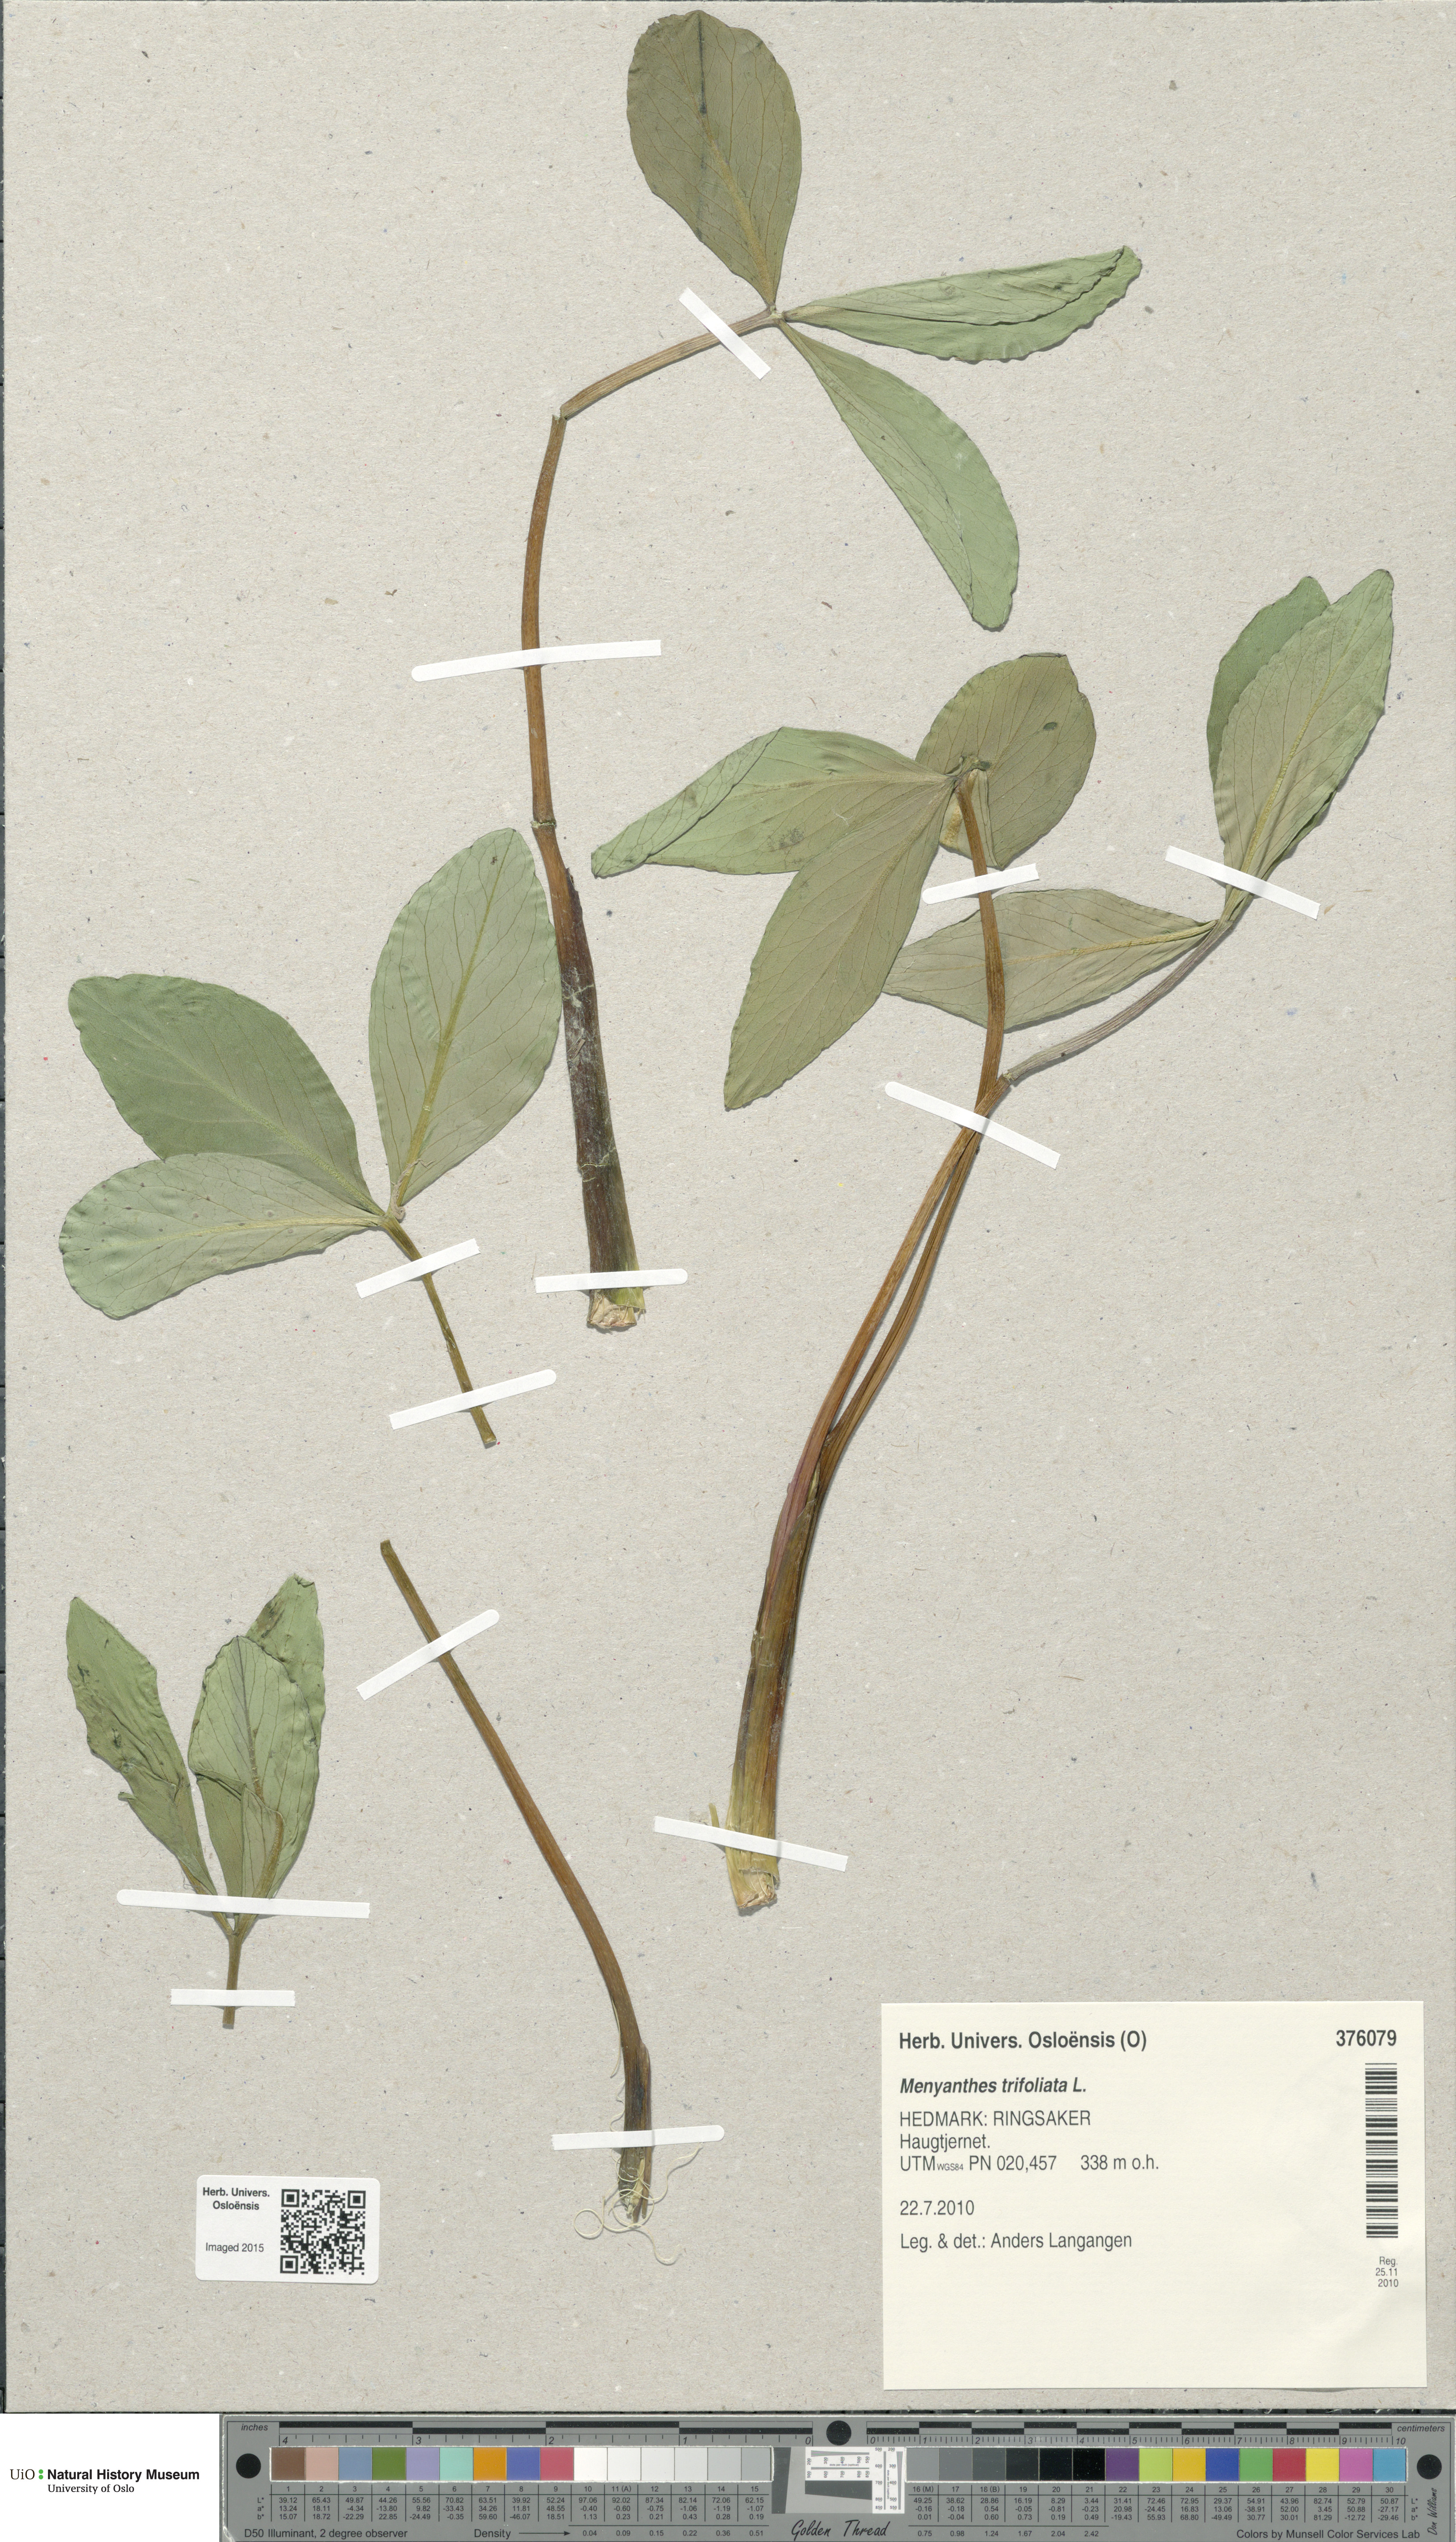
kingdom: Plantae
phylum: Tracheophyta
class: Magnoliopsida
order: Asterales
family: Menyanthaceae
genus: Menyanthes
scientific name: Menyanthes trifoliata
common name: Bogbean
